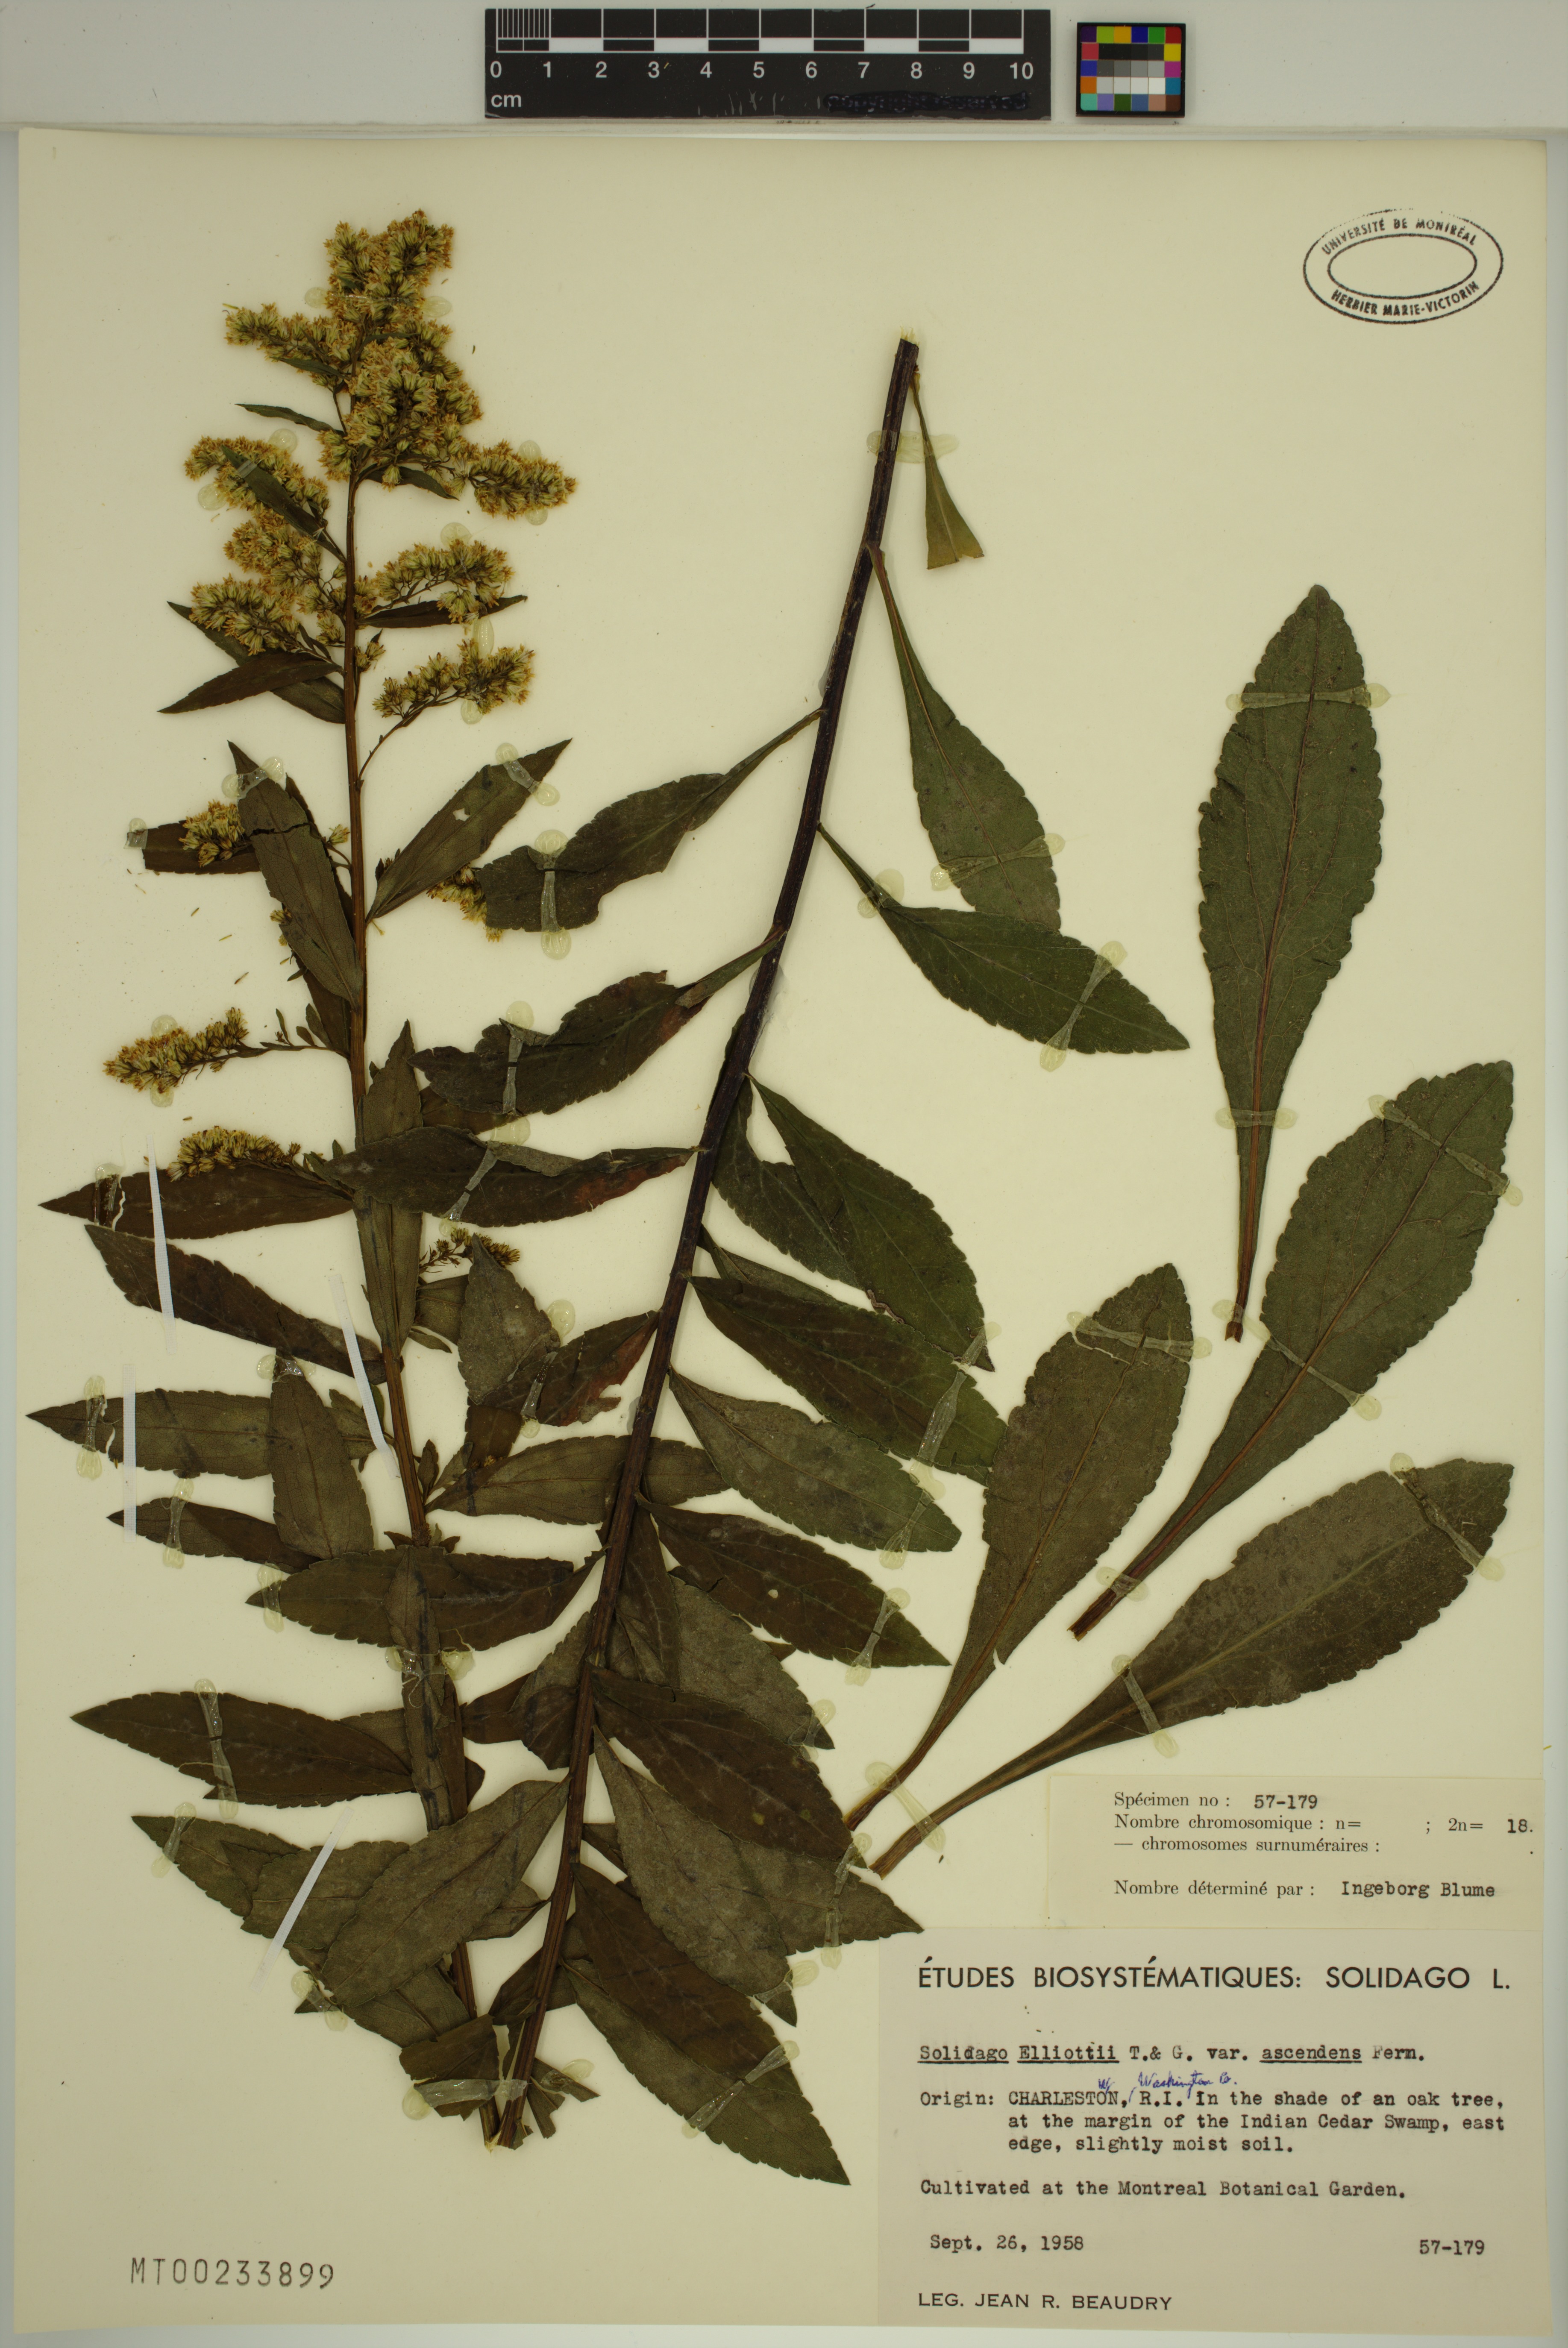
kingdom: Plantae
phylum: Tracheophyta
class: Magnoliopsida
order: Asterales
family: Asteraceae
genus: Solidago
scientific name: Solidago latissimifolia
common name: Elliott's goldenrod
